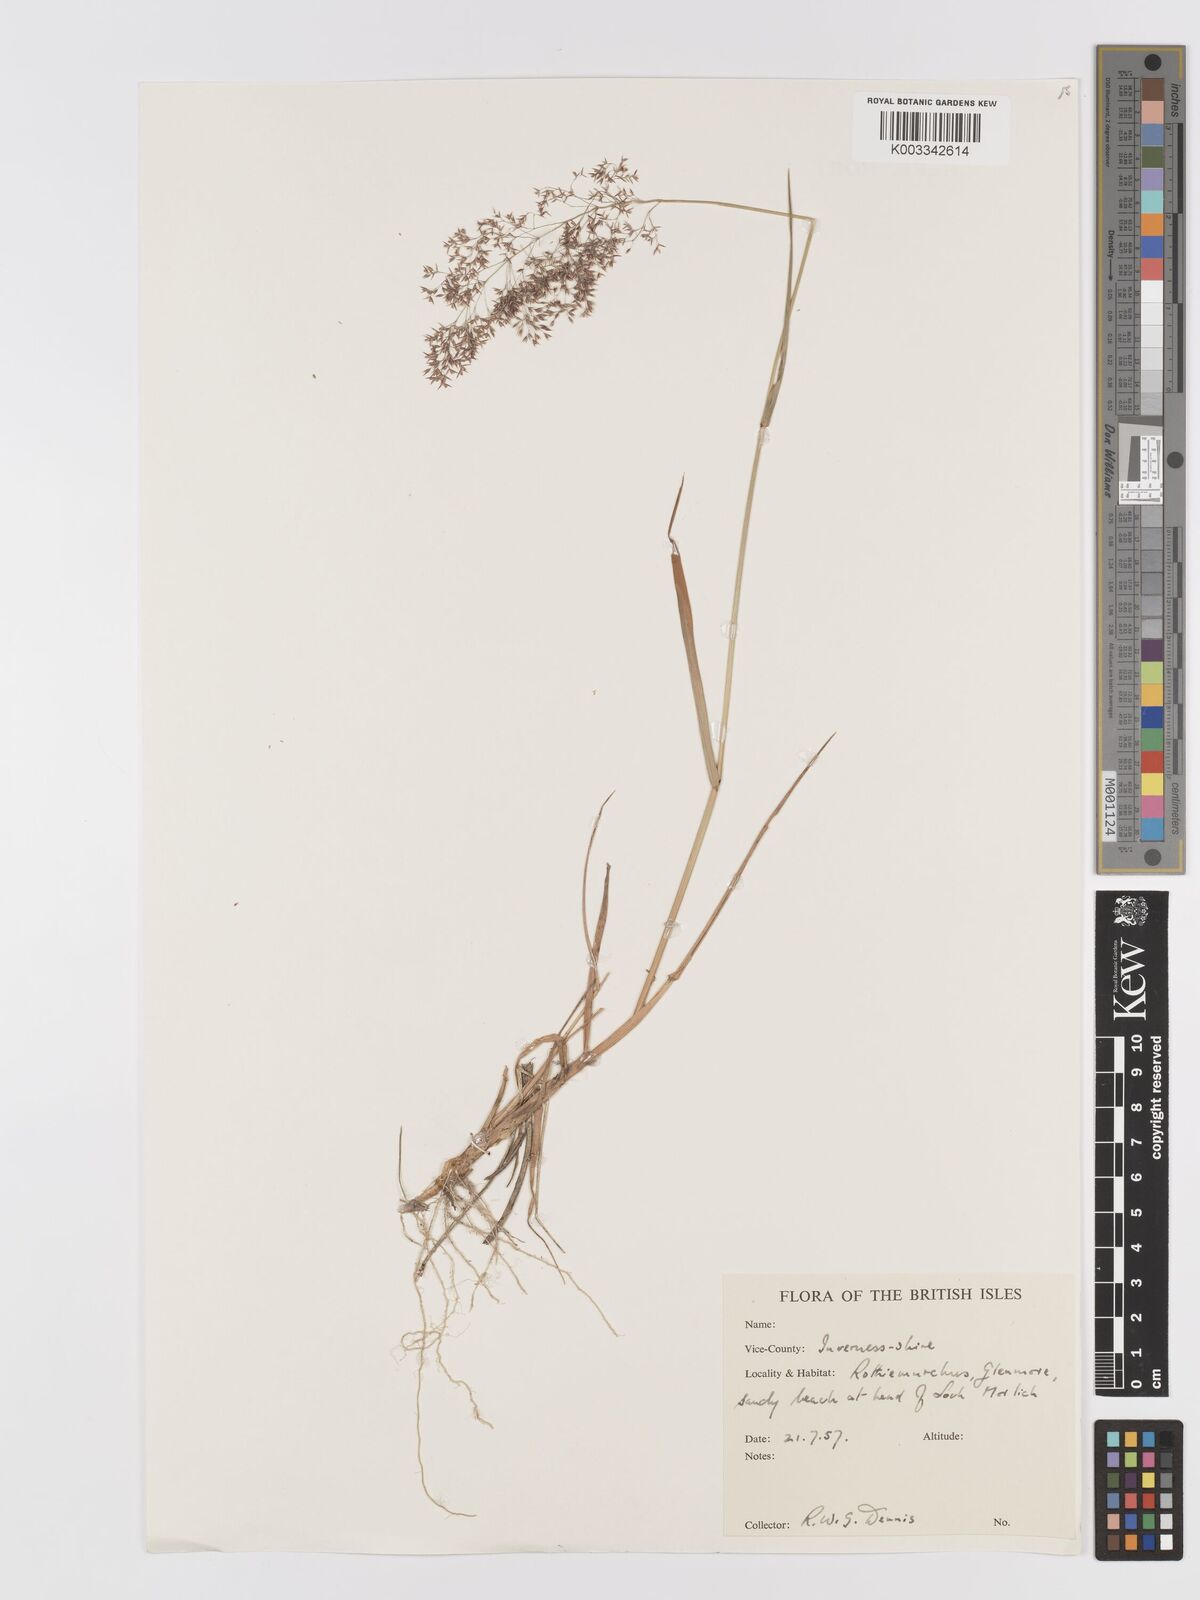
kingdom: Plantae
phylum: Tracheophyta
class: Liliopsida
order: Poales
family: Poaceae
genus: Agrostis
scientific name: Agrostis
